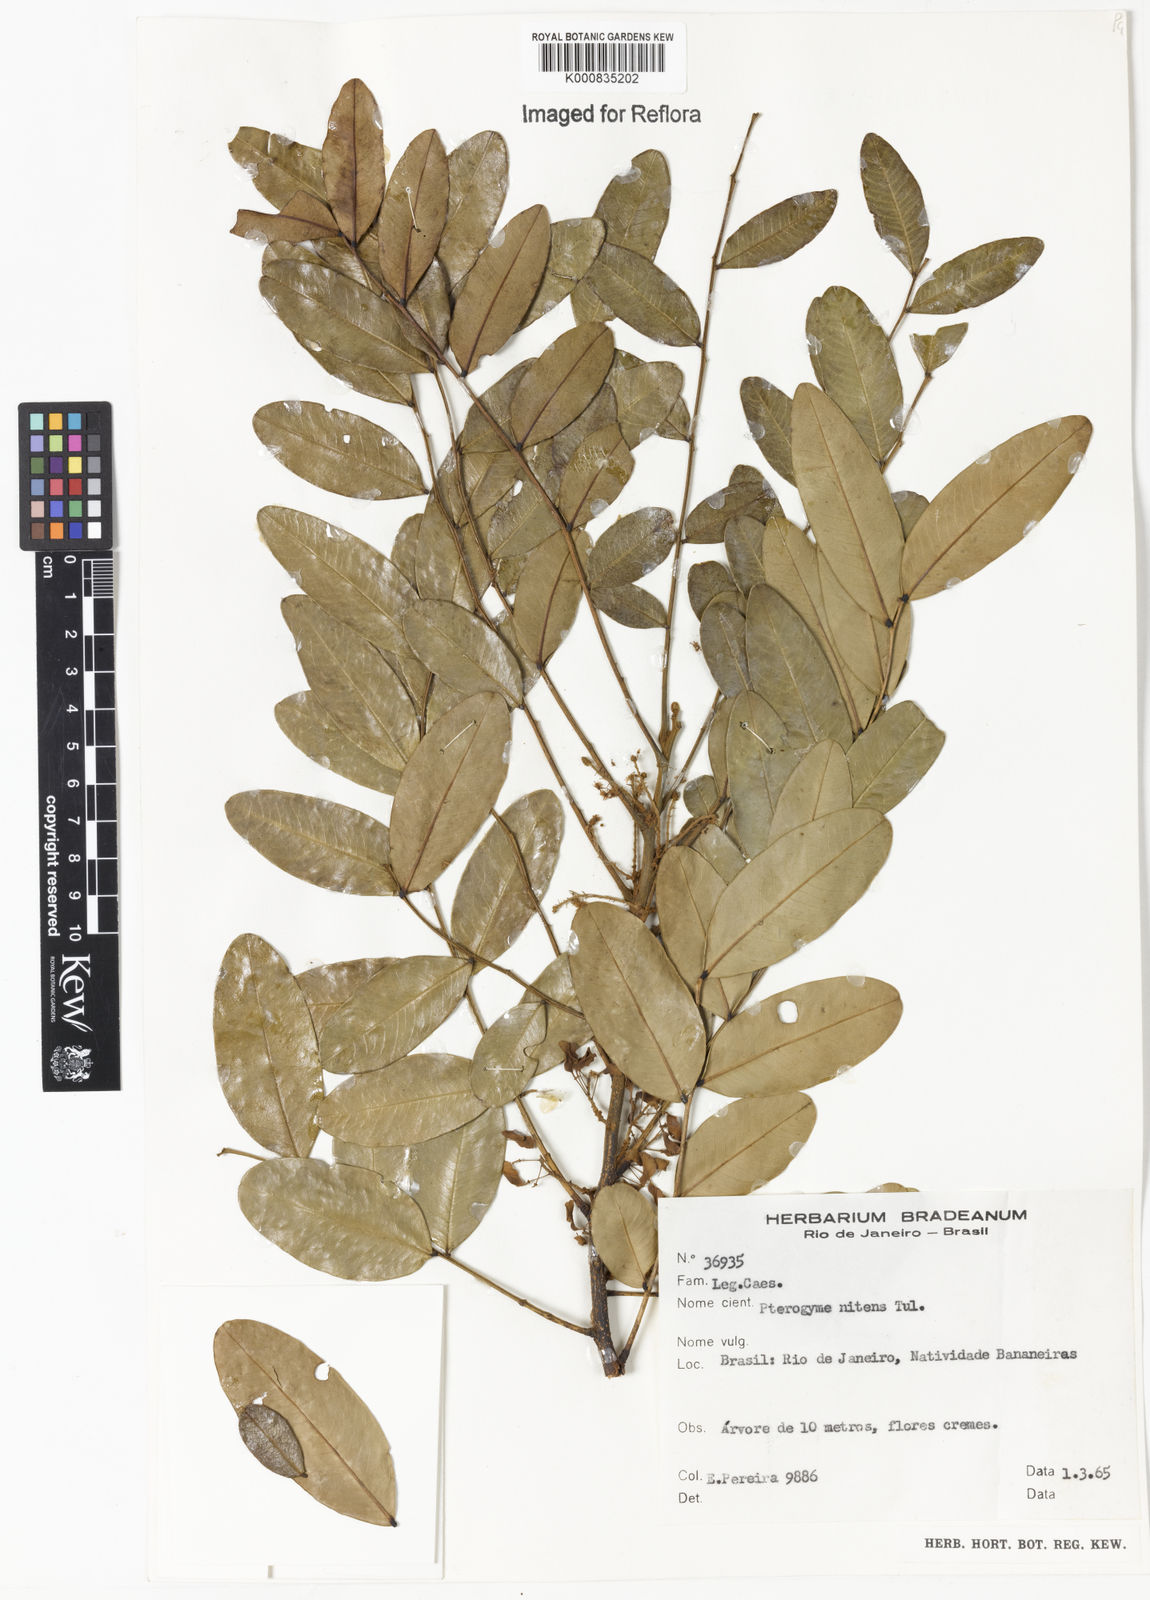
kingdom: Plantae
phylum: Tracheophyta
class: Magnoliopsida
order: Fabales
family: Fabaceae
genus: Pterogyne
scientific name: Pterogyne nitens
